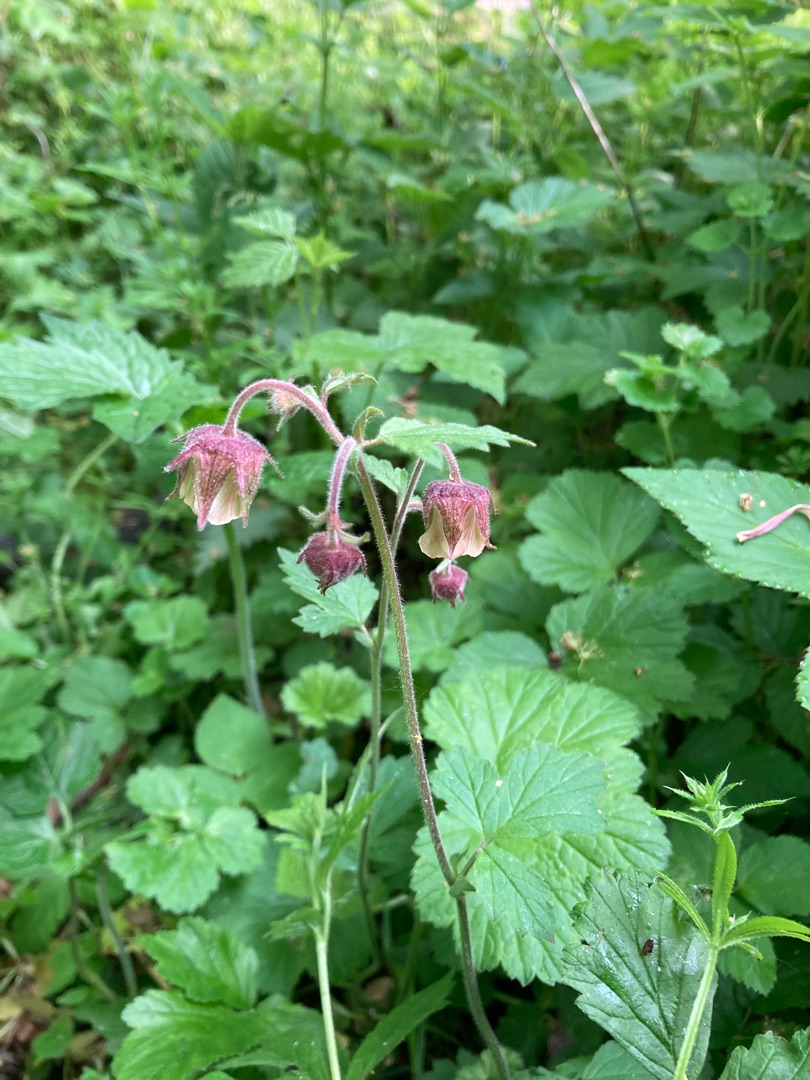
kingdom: Plantae
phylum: Tracheophyta
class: Magnoliopsida
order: Rosales
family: Rosaceae
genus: Geum
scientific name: Geum rivale
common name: Eng-nellikerod
